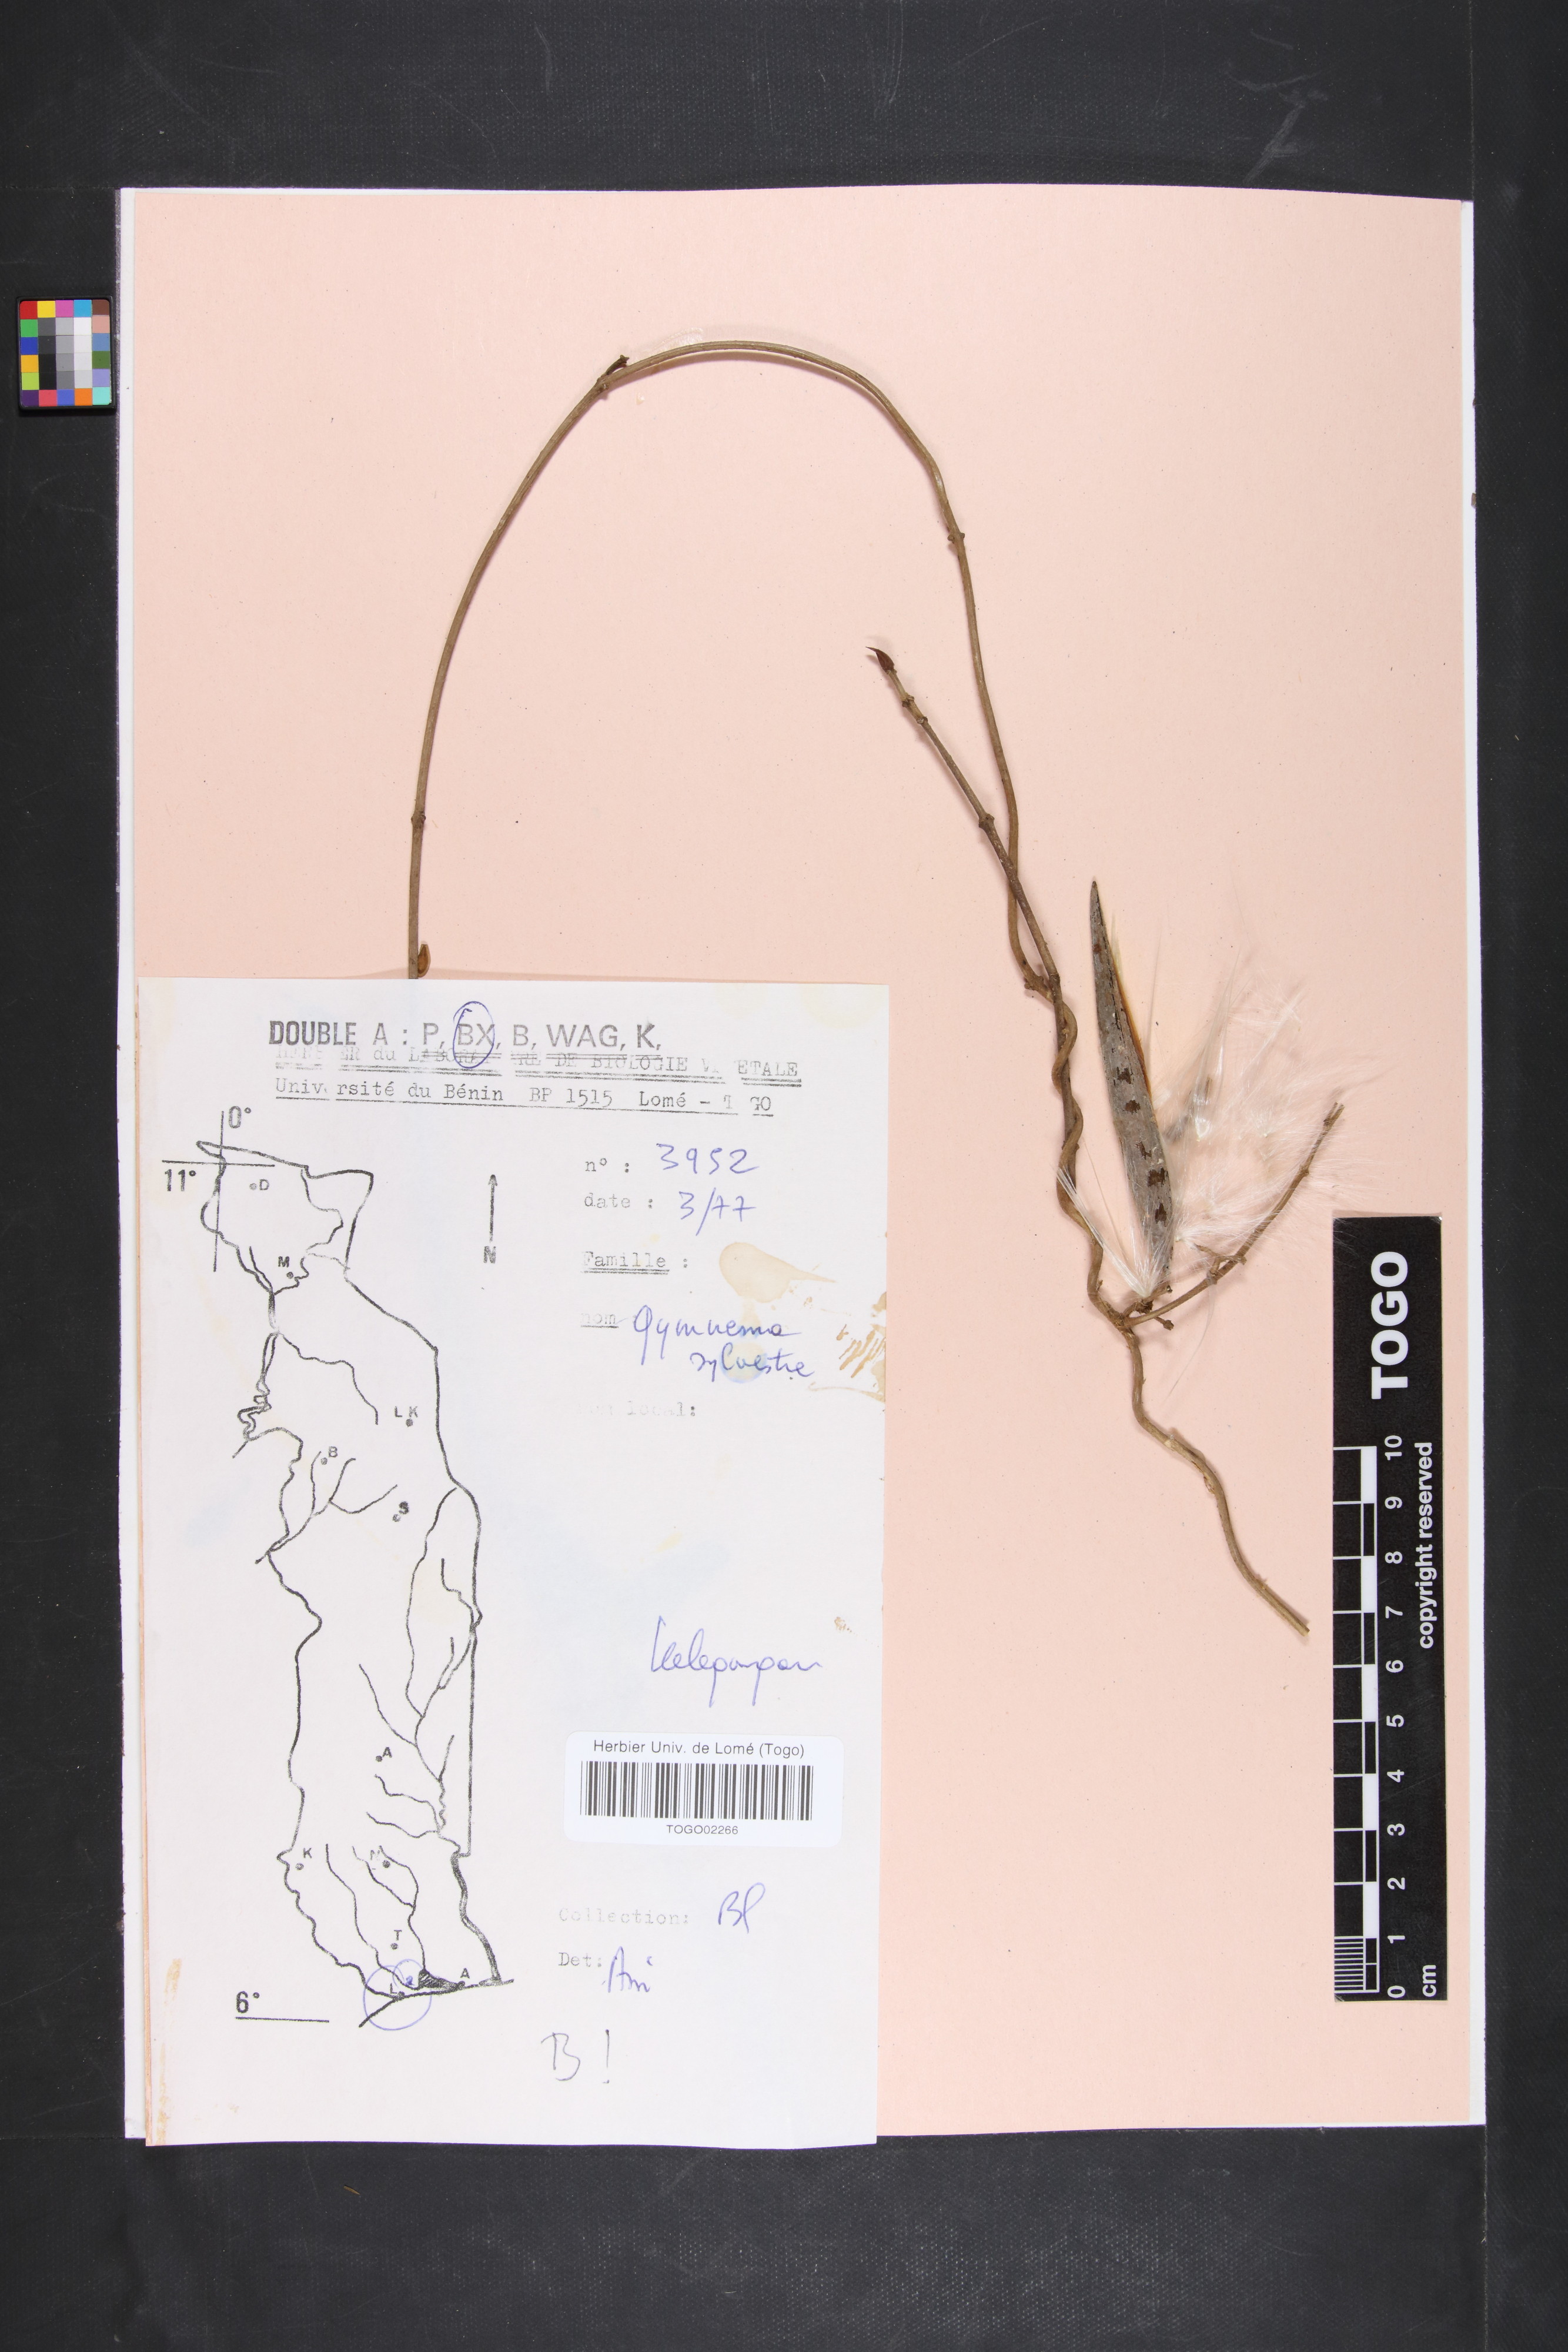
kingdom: Plantae
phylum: Tracheophyta
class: Magnoliopsida
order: Gentianales
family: Apocynaceae
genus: Gymnema
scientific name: Gymnema sylvestre
